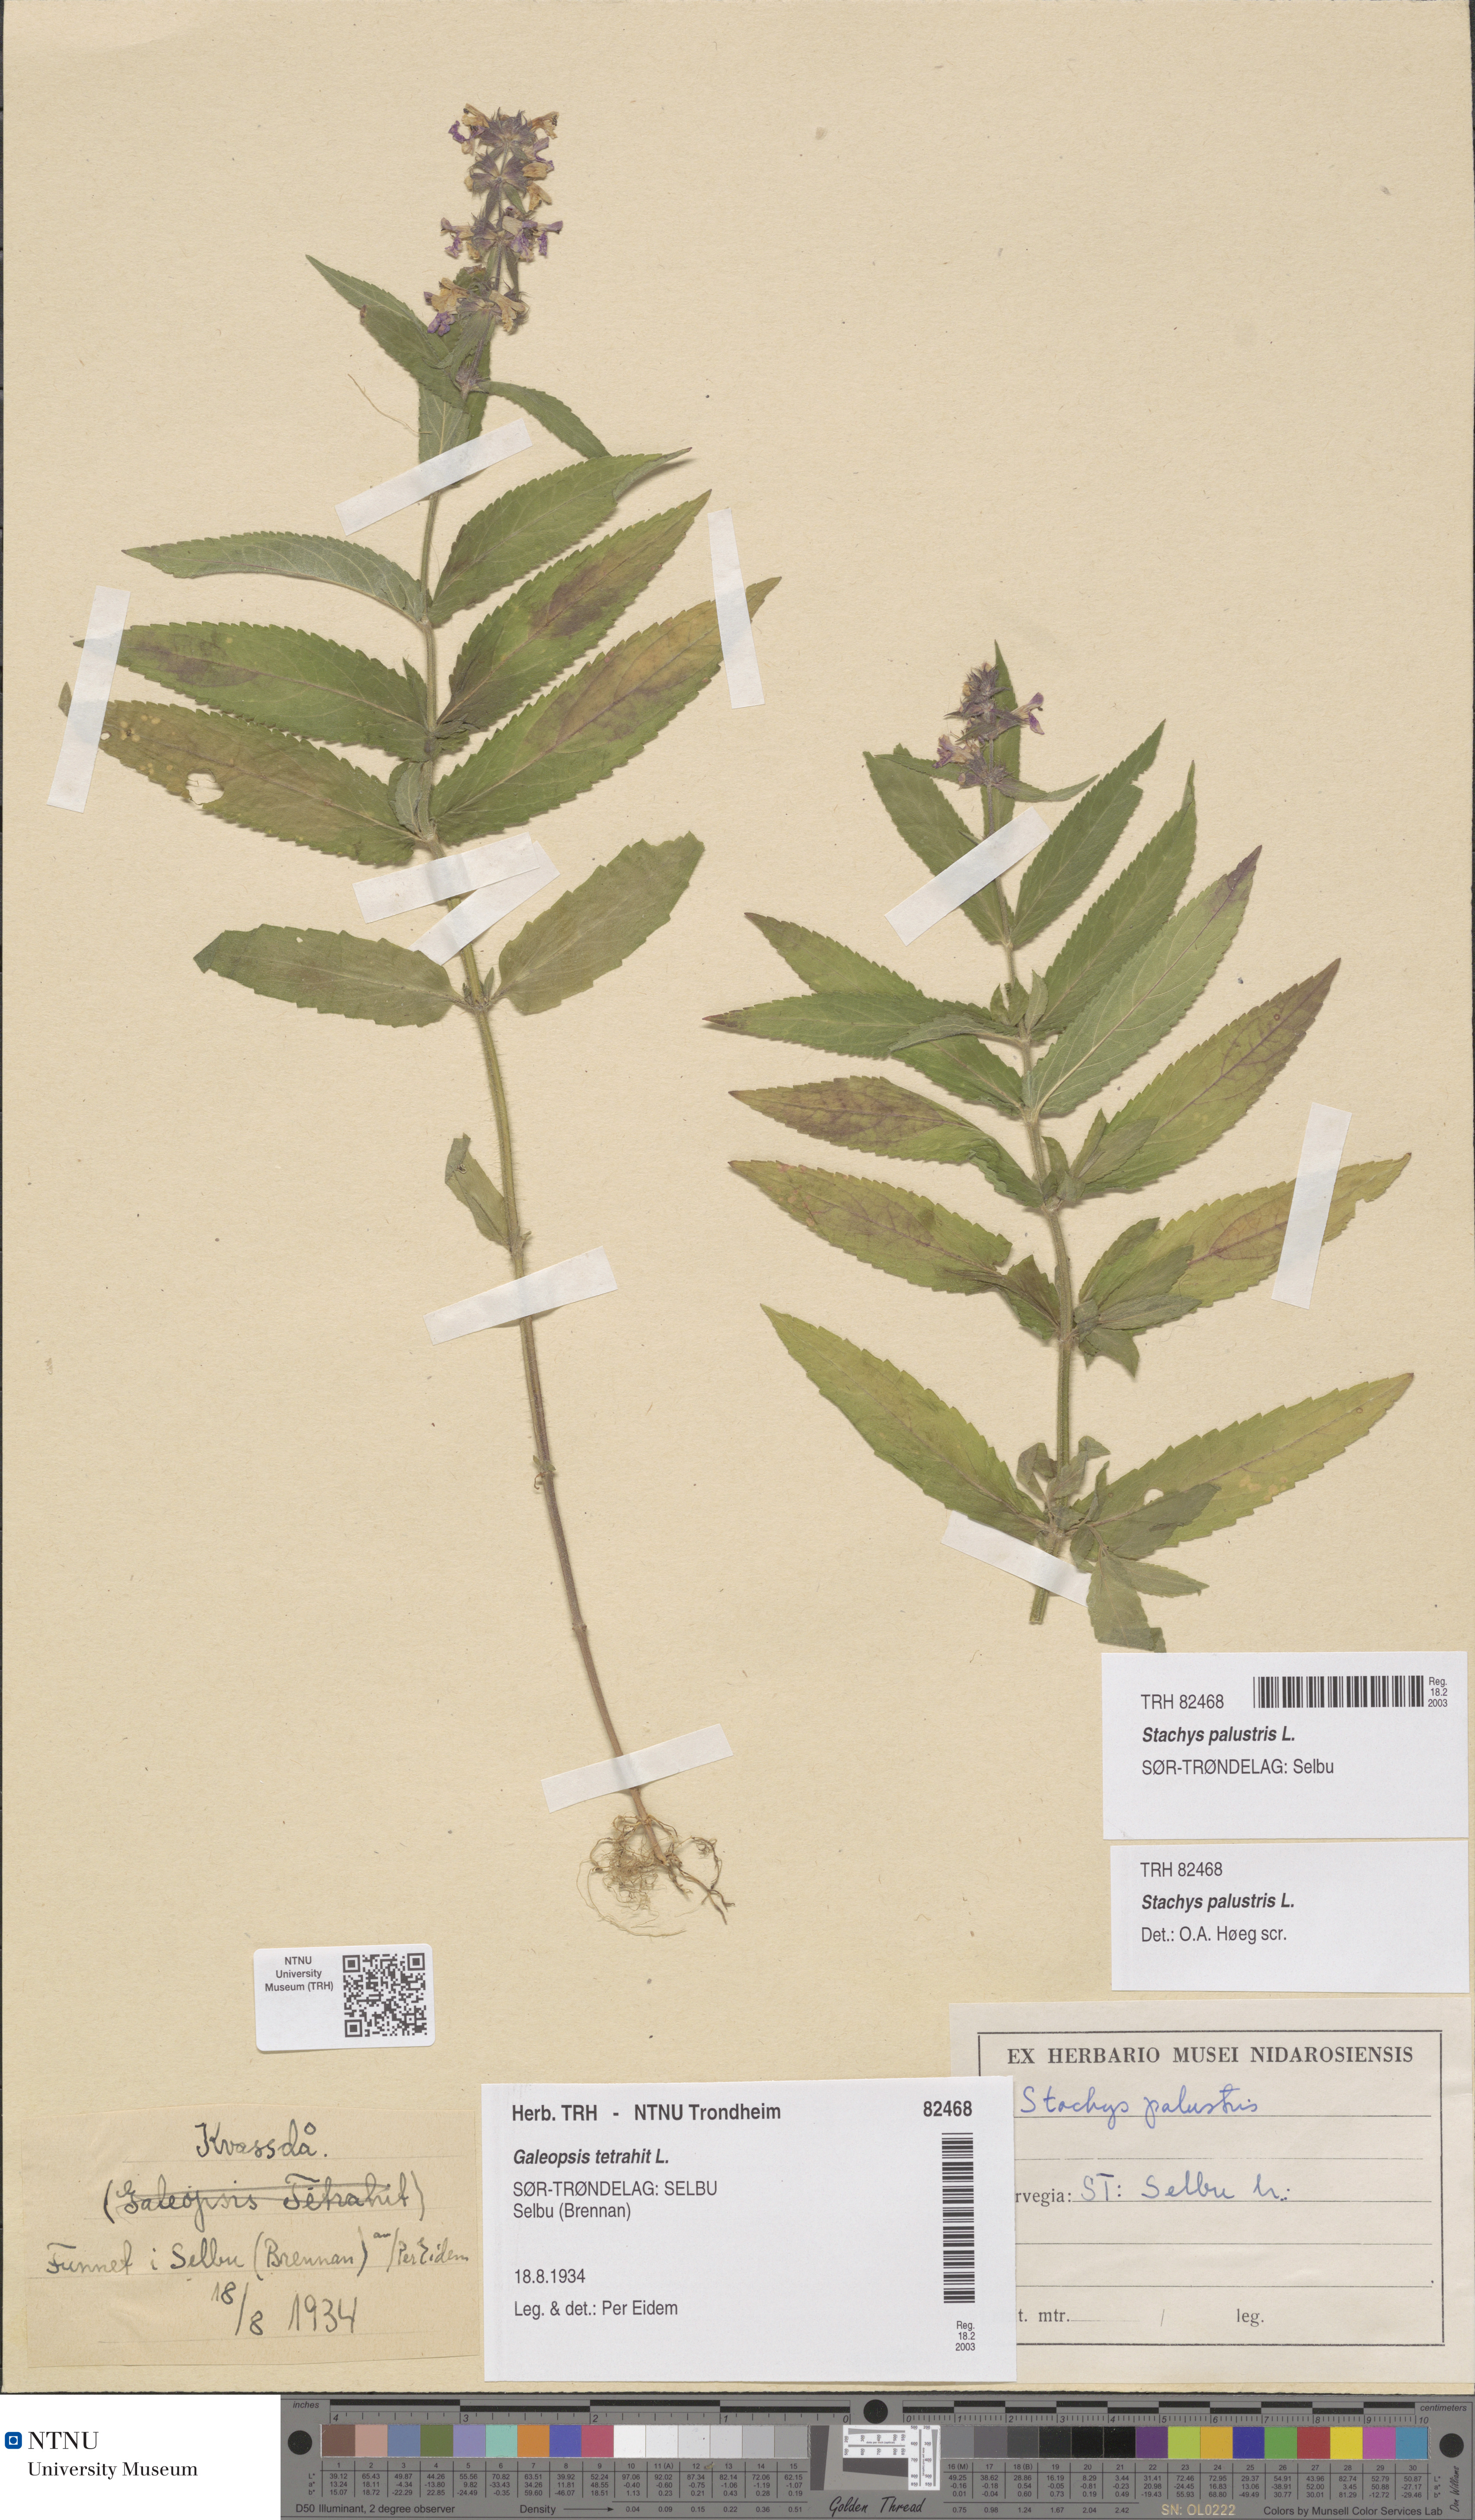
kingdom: Plantae
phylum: Tracheophyta
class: Magnoliopsida
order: Lamiales
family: Lamiaceae
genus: Stachys
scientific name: Stachys palustris
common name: Marsh woundwort
